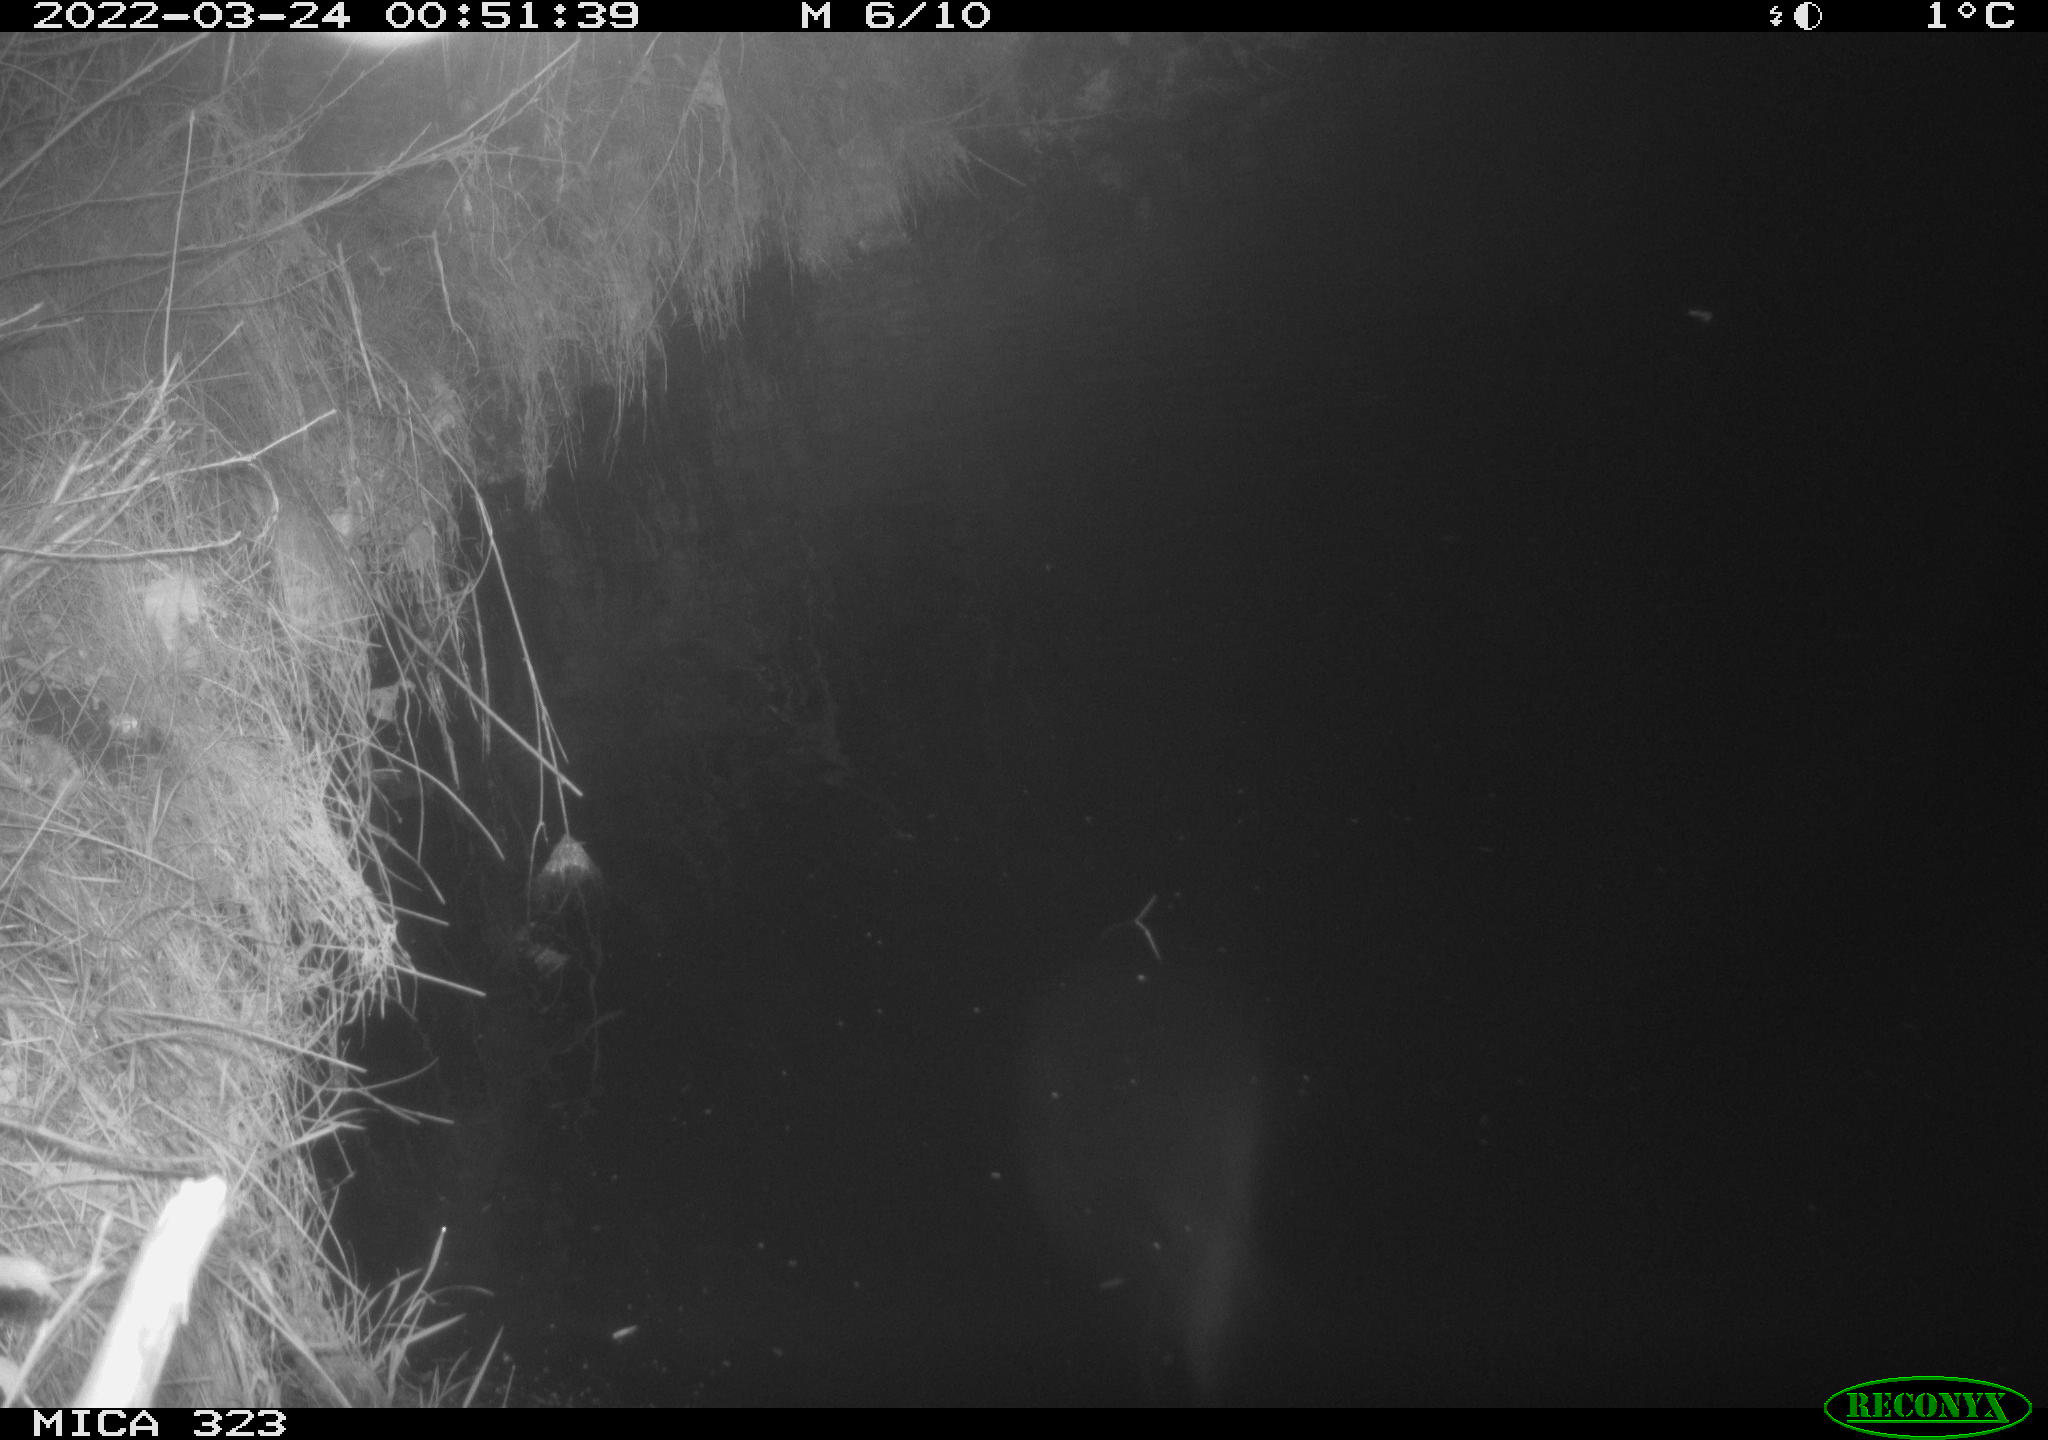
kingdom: Animalia
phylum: Chordata
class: Aves
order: Anseriformes
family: Anatidae
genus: Anas
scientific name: Anas
